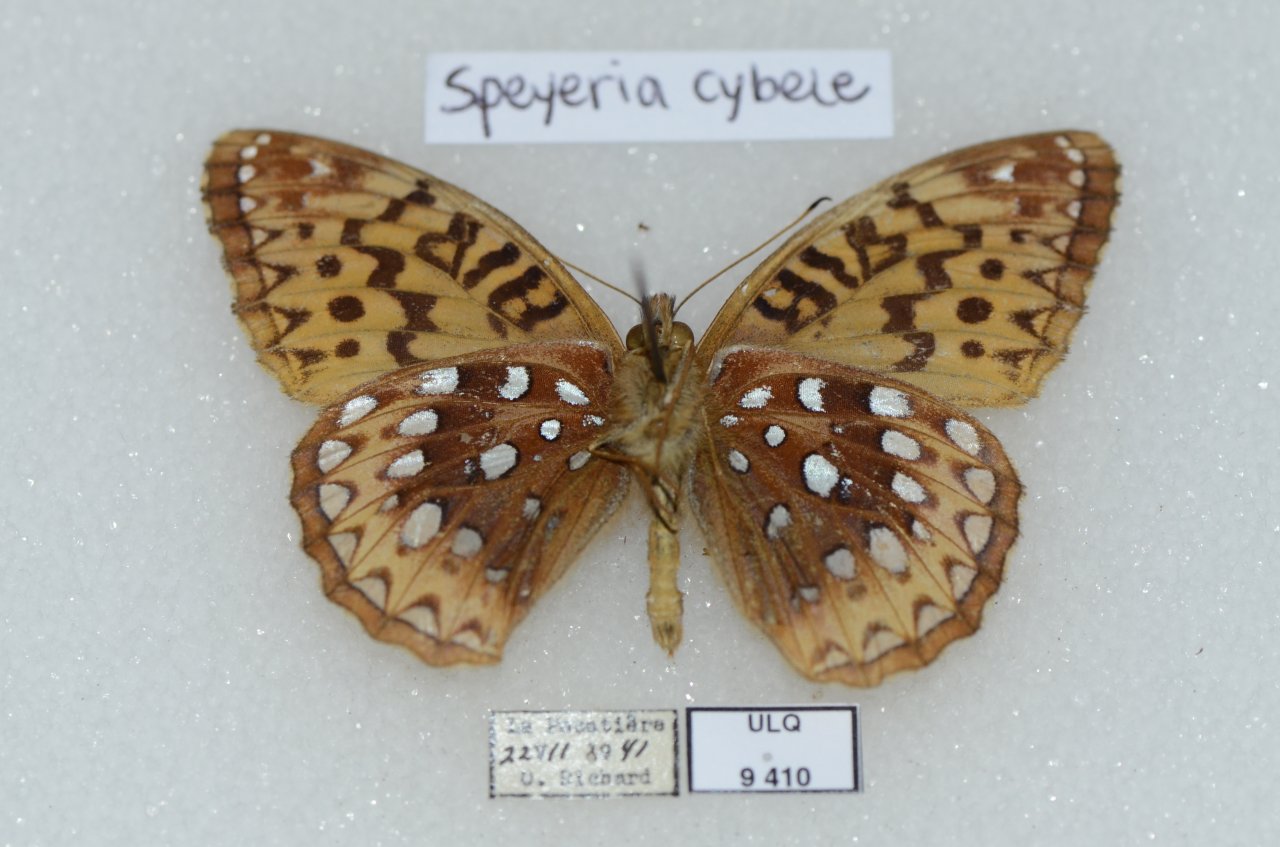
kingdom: Animalia
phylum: Arthropoda
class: Insecta
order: Lepidoptera
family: Nymphalidae
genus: Speyeria
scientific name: Speyeria cybele
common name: Great Spangled Fritillary
